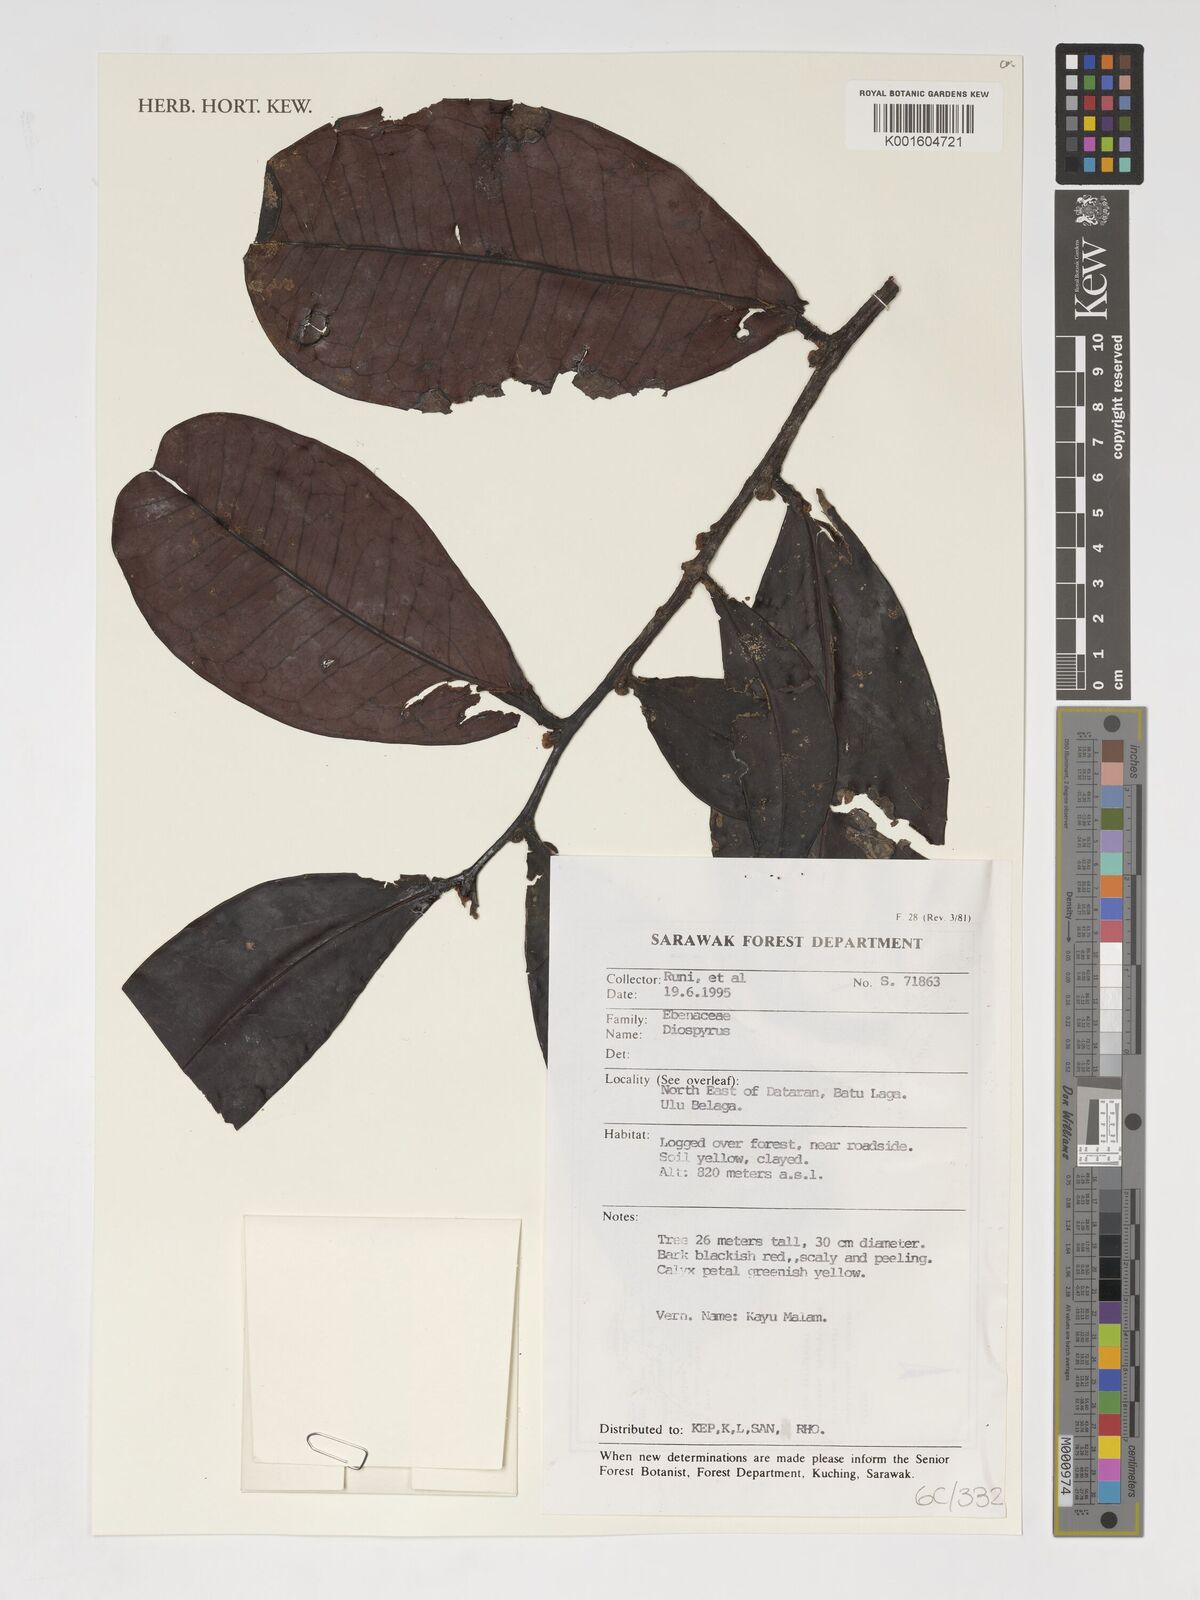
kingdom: Plantae
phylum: Tracheophyta
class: Magnoliopsida
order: Ericales
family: Ebenaceae
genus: Diospyros
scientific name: Diospyros
